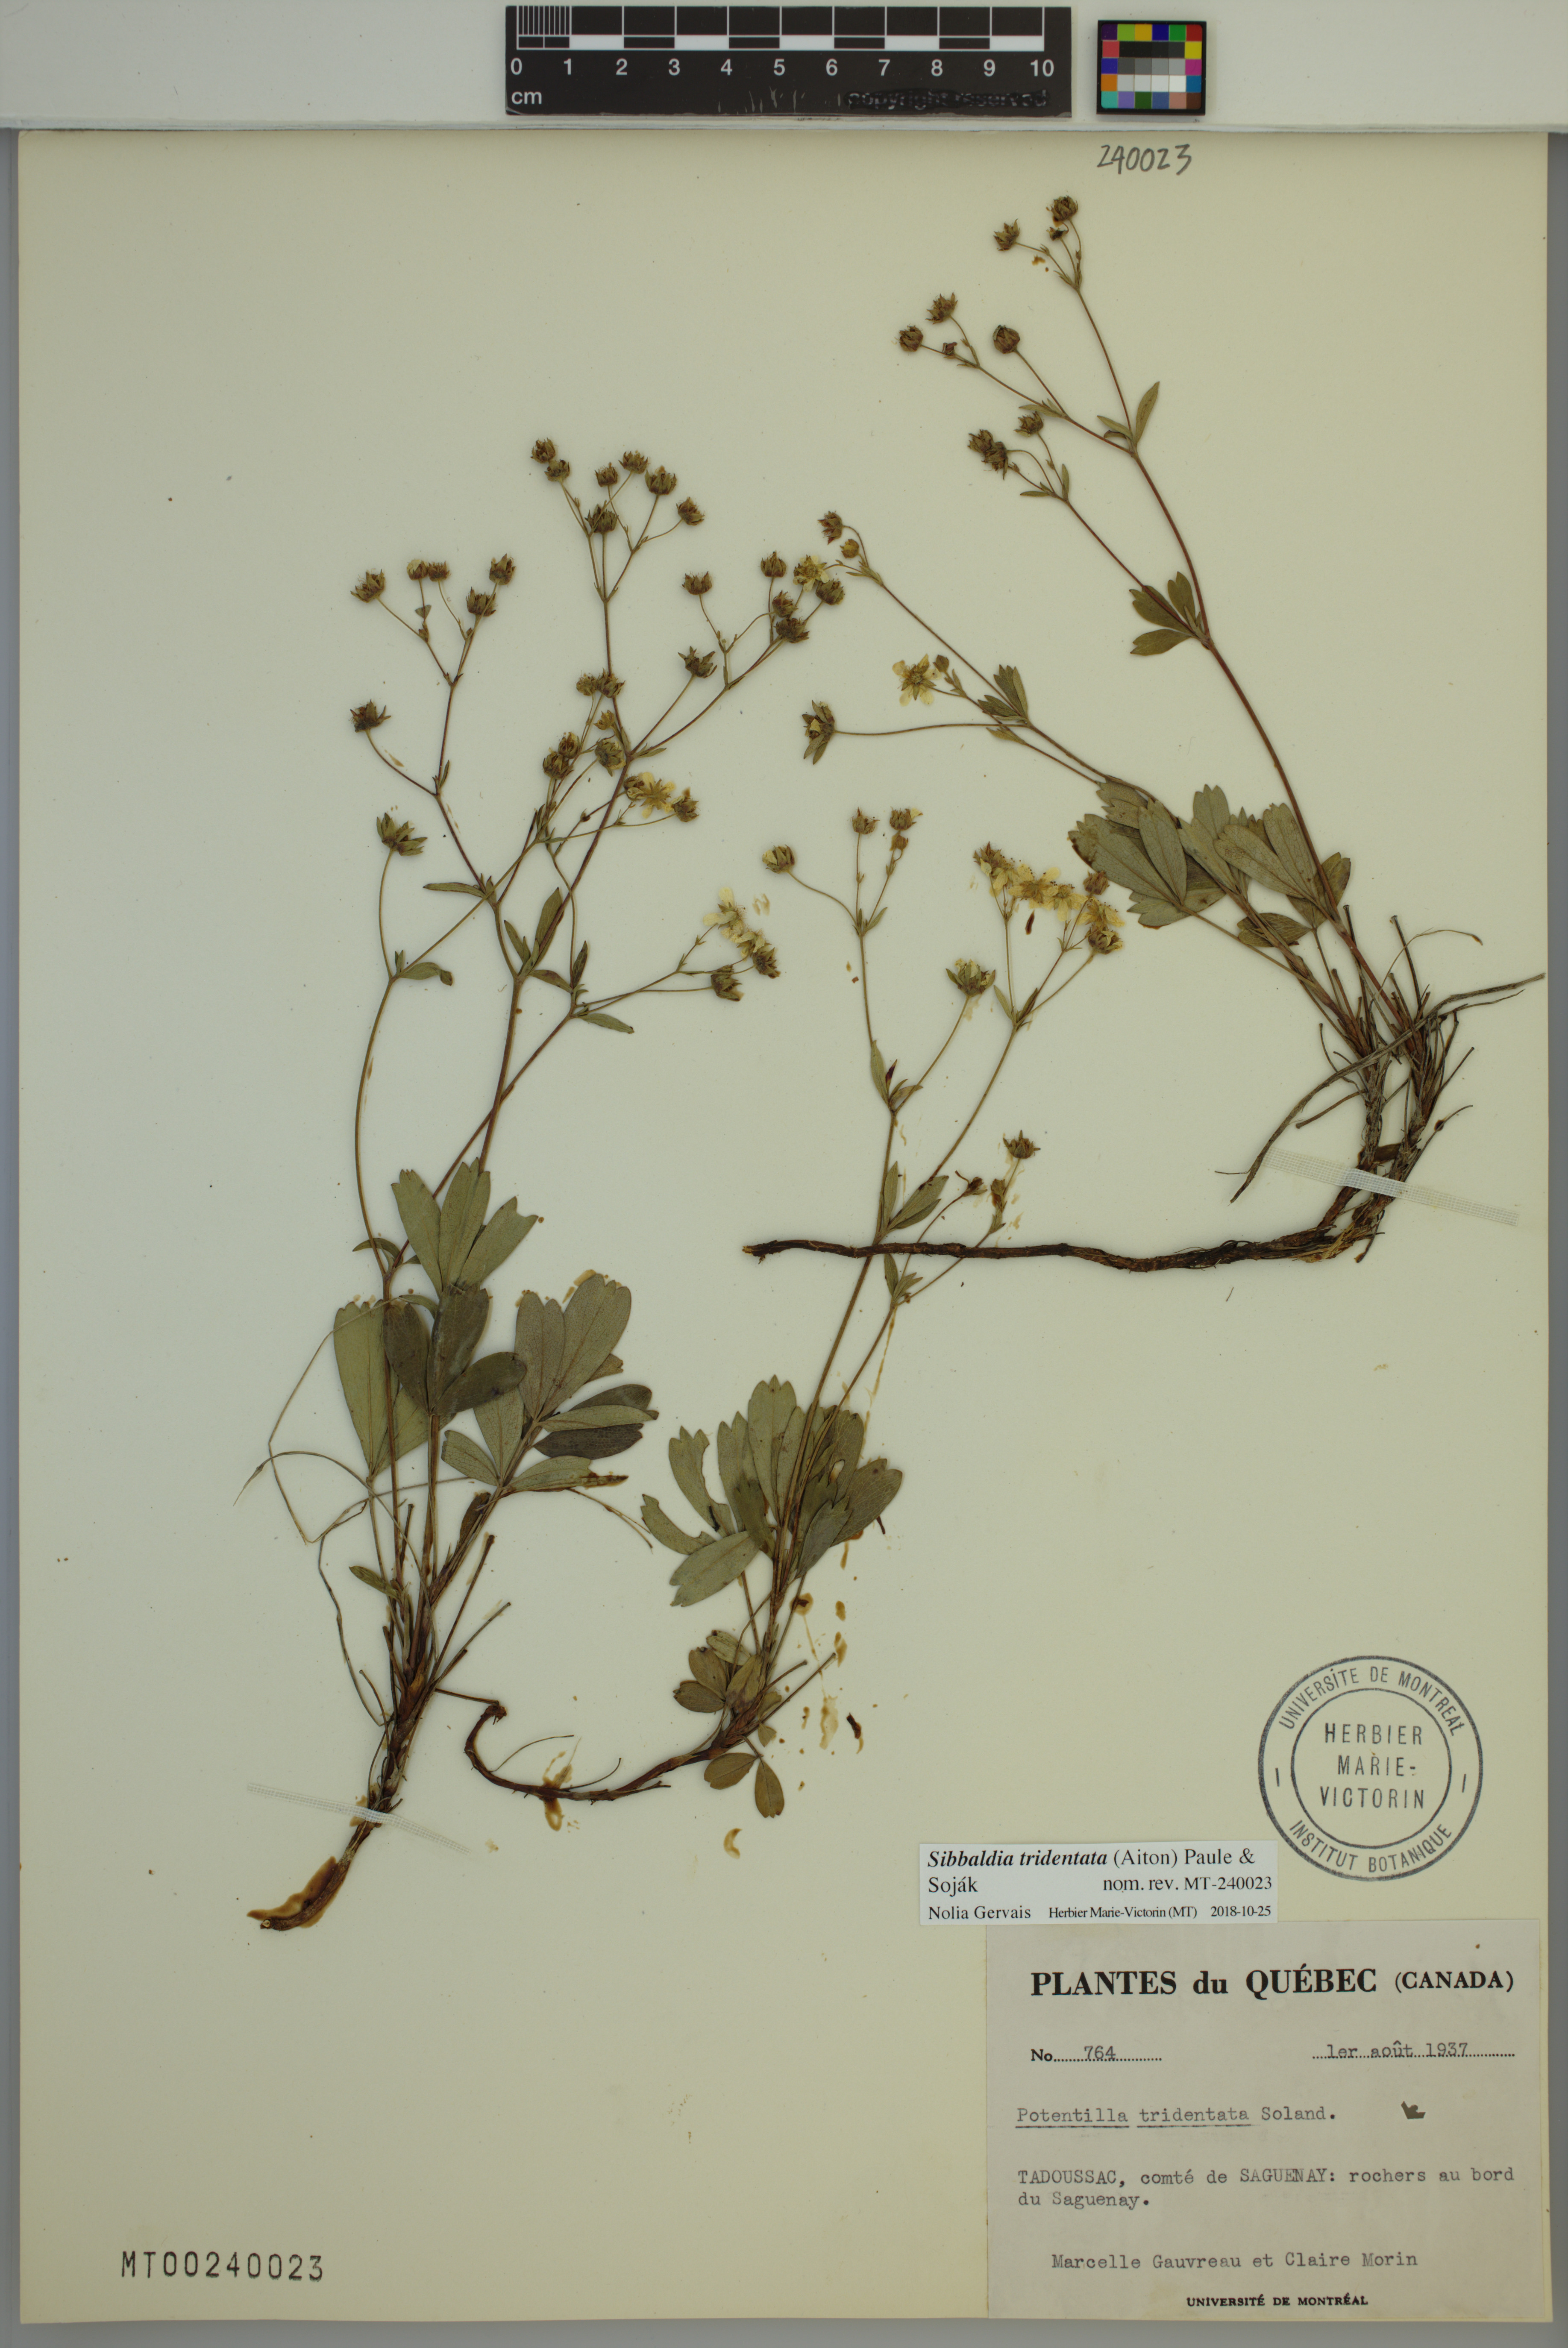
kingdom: Plantae
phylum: Tracheophyta
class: Magnoliopsida
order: Rosales
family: Rosaceae
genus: Sibbaldia
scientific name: Sibbaldia tridentata
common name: Three-toothed cinquefoil
